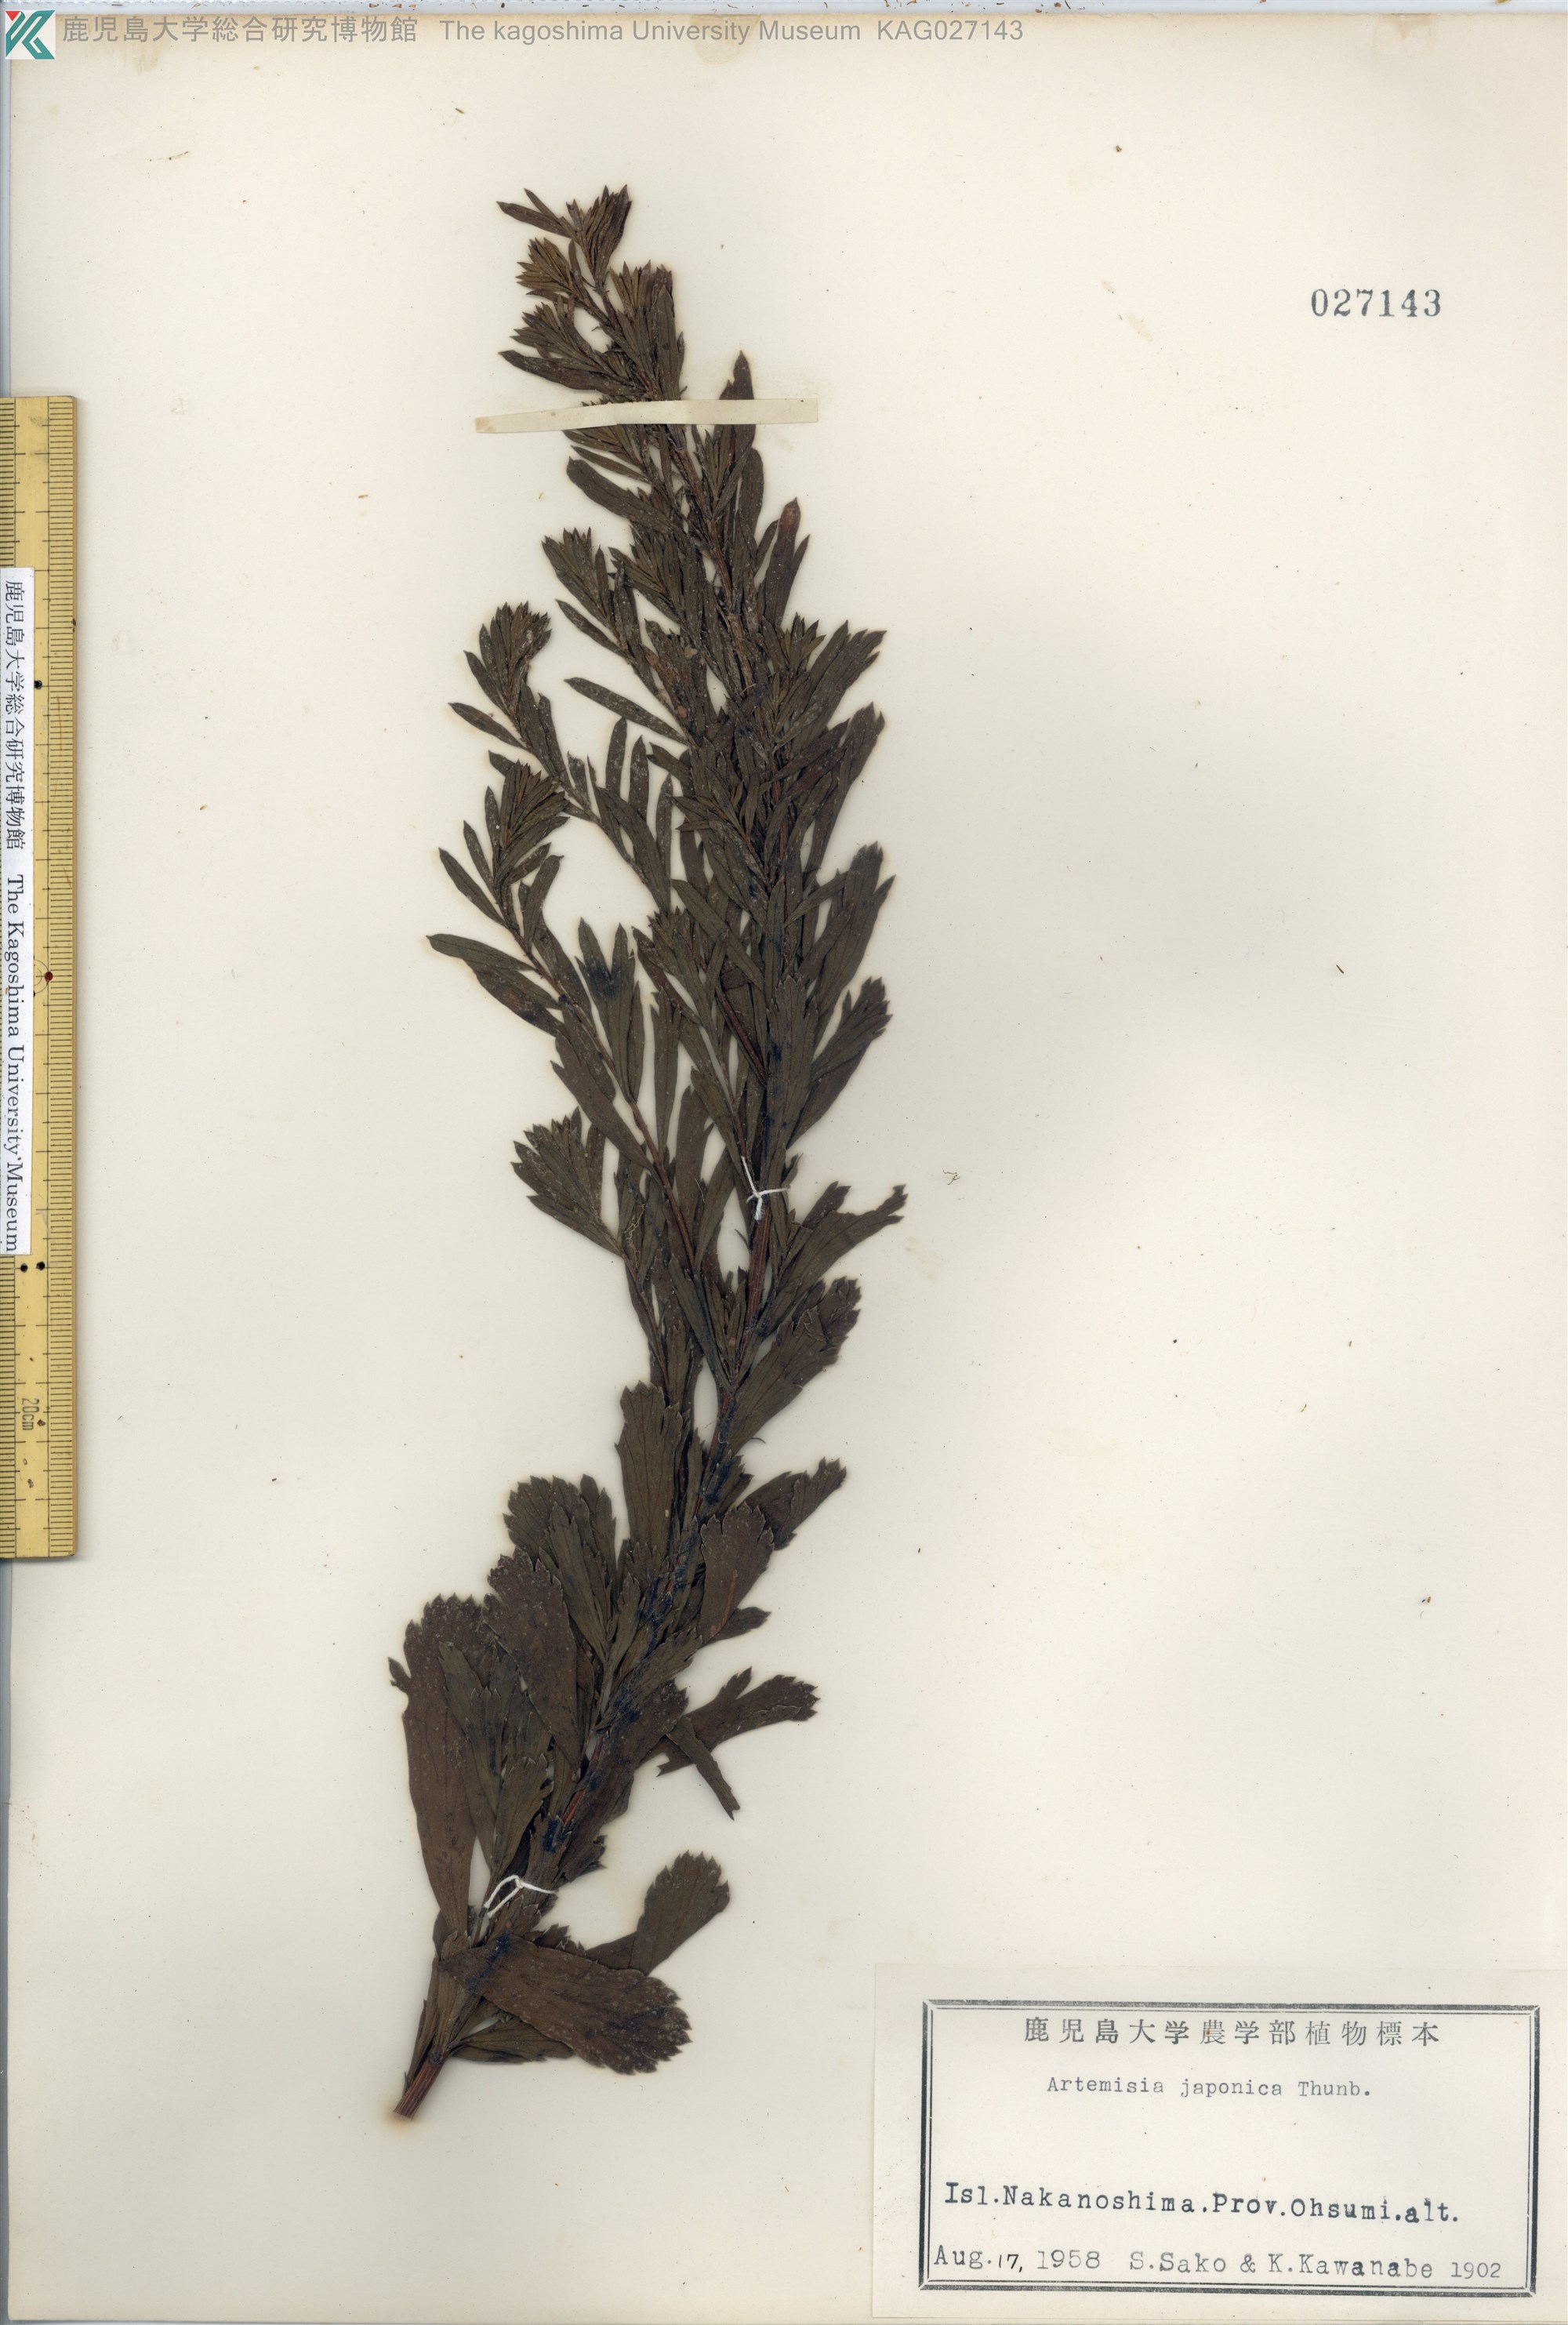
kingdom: Plantae
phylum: Tracheophyta
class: Magnoliopsida
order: Asterales
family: Asteraceae
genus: Artemisia
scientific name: Artemisia japonica
